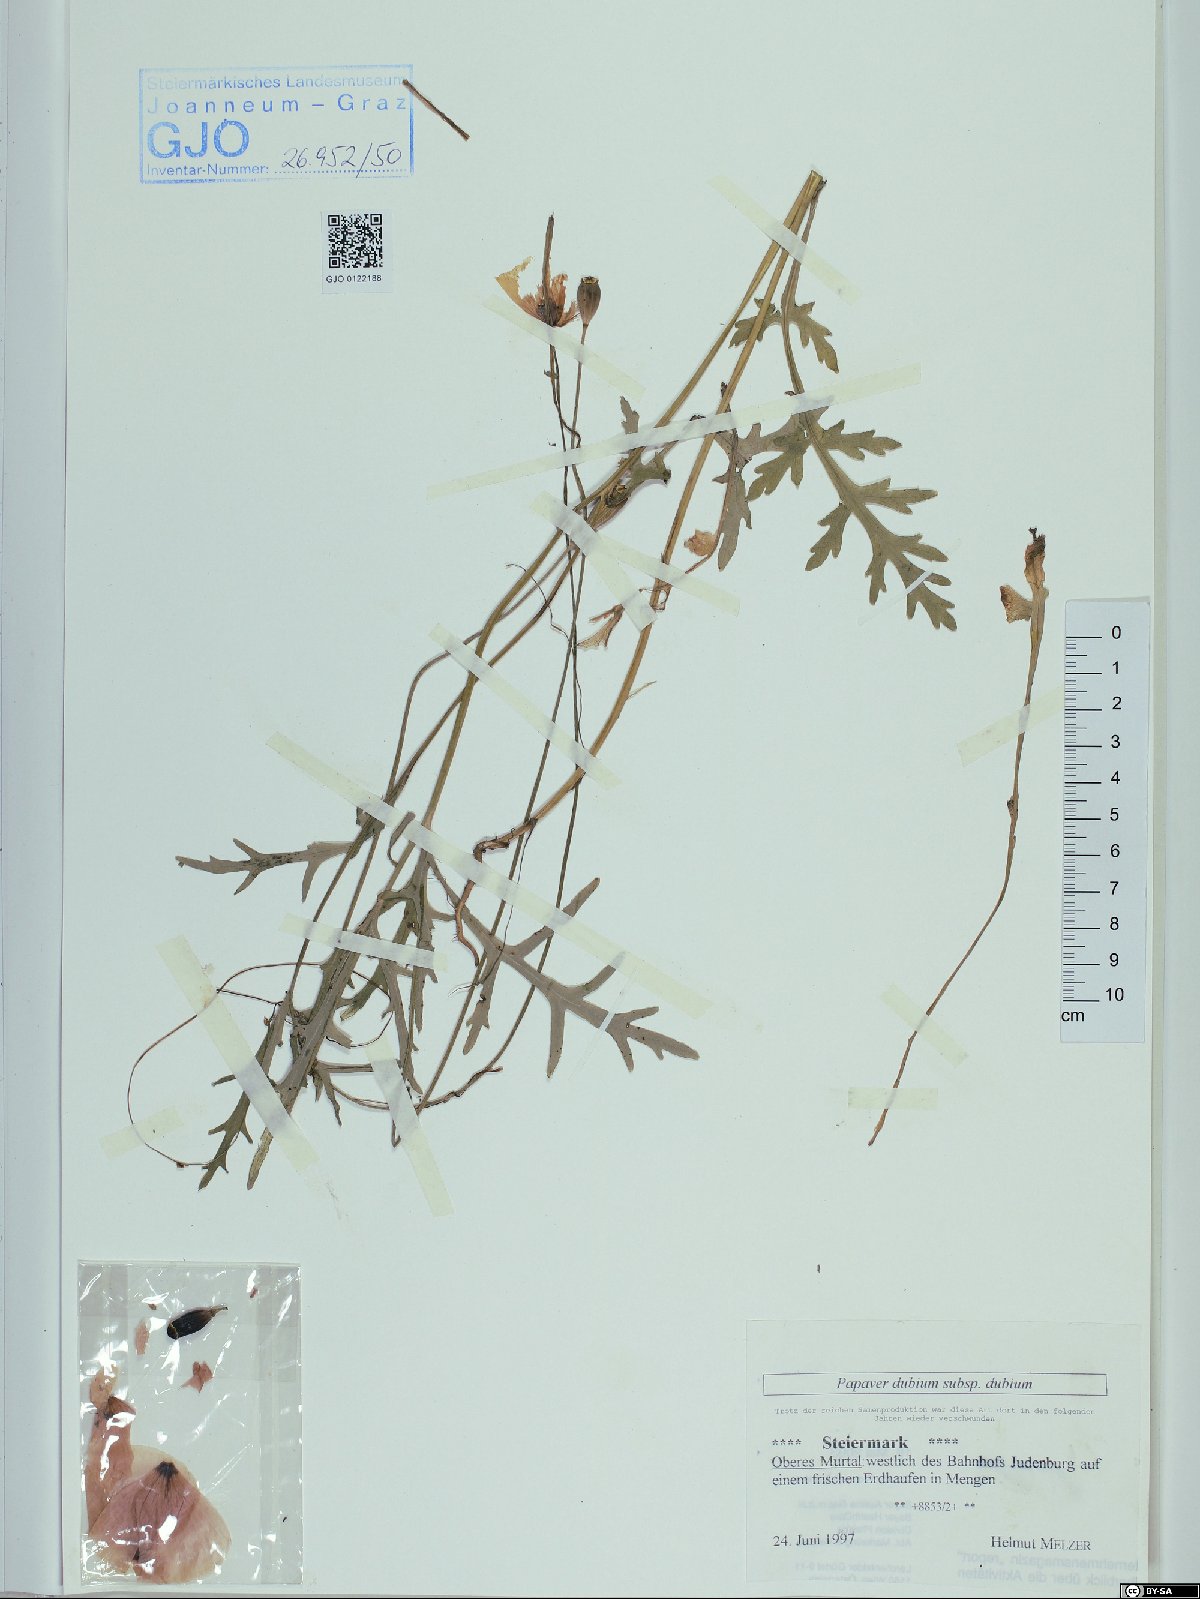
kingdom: Plantae
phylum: Tracheophyta
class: Magnoliopsida
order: Ranunculales
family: Papaveraceae
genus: Papaver
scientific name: Papaver dubium
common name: Long-headed poppy
